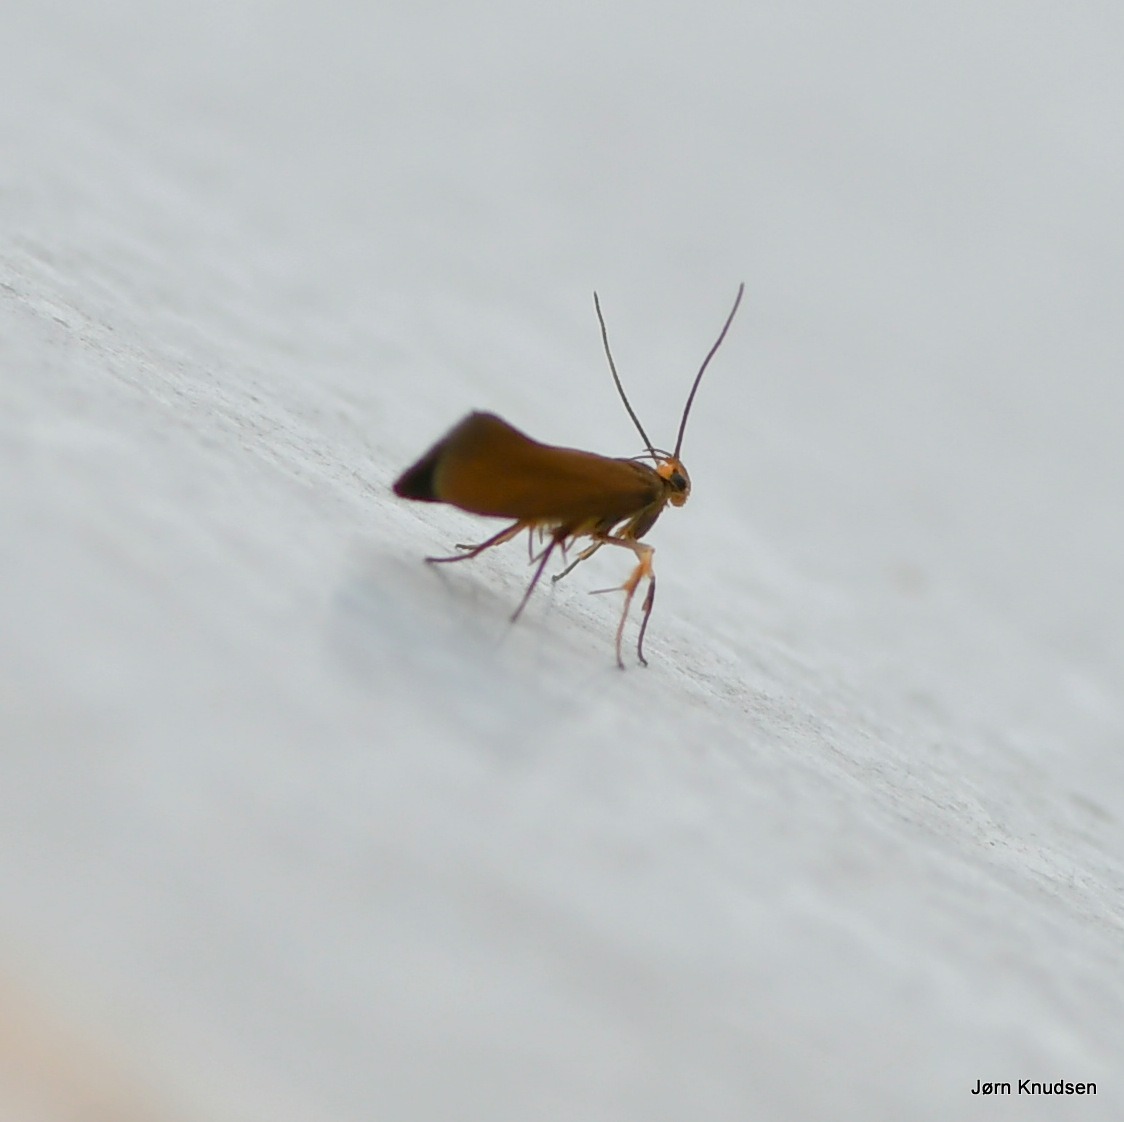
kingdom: Animalia
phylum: Arthropoda
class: Insecta
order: Lepidoptera
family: Oecophoridae
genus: Borkhausenia
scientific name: Borkhausenia Crassa unitella
